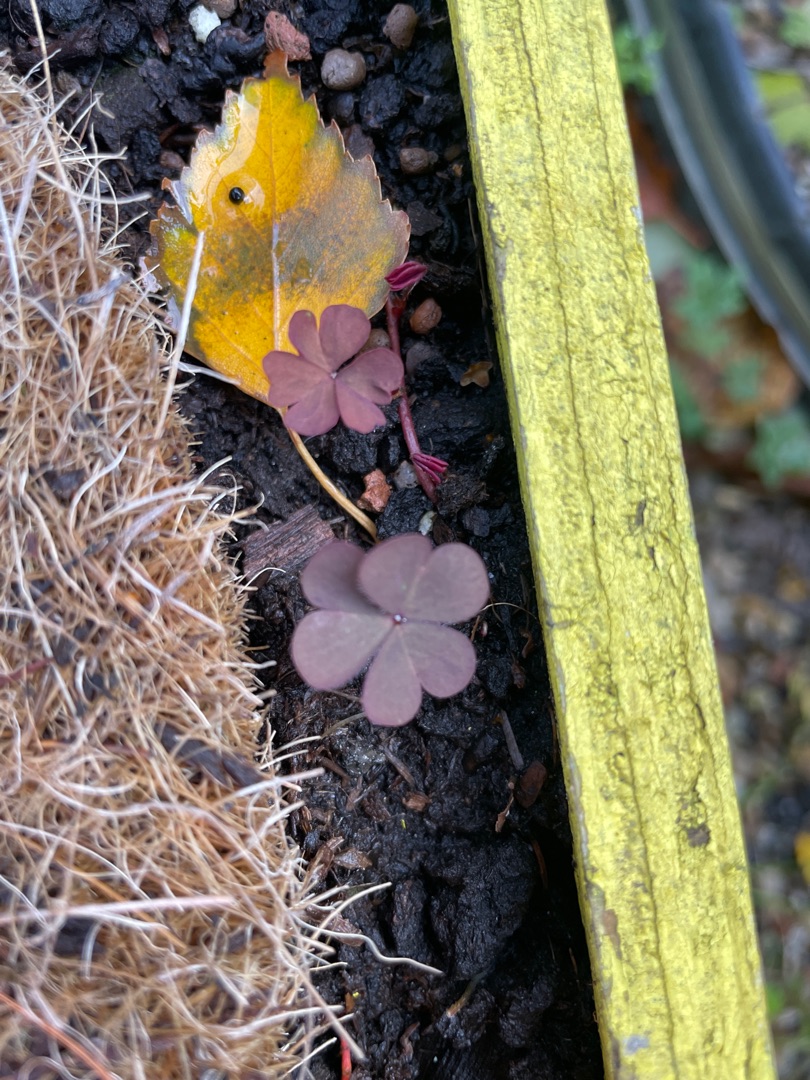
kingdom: Plantae
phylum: Tracheophyta
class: Magnoliopsida
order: Oxalidales
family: Oxalidaceae
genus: Oxalis
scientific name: Oxalis corniculata
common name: Nedliggende surkløver
